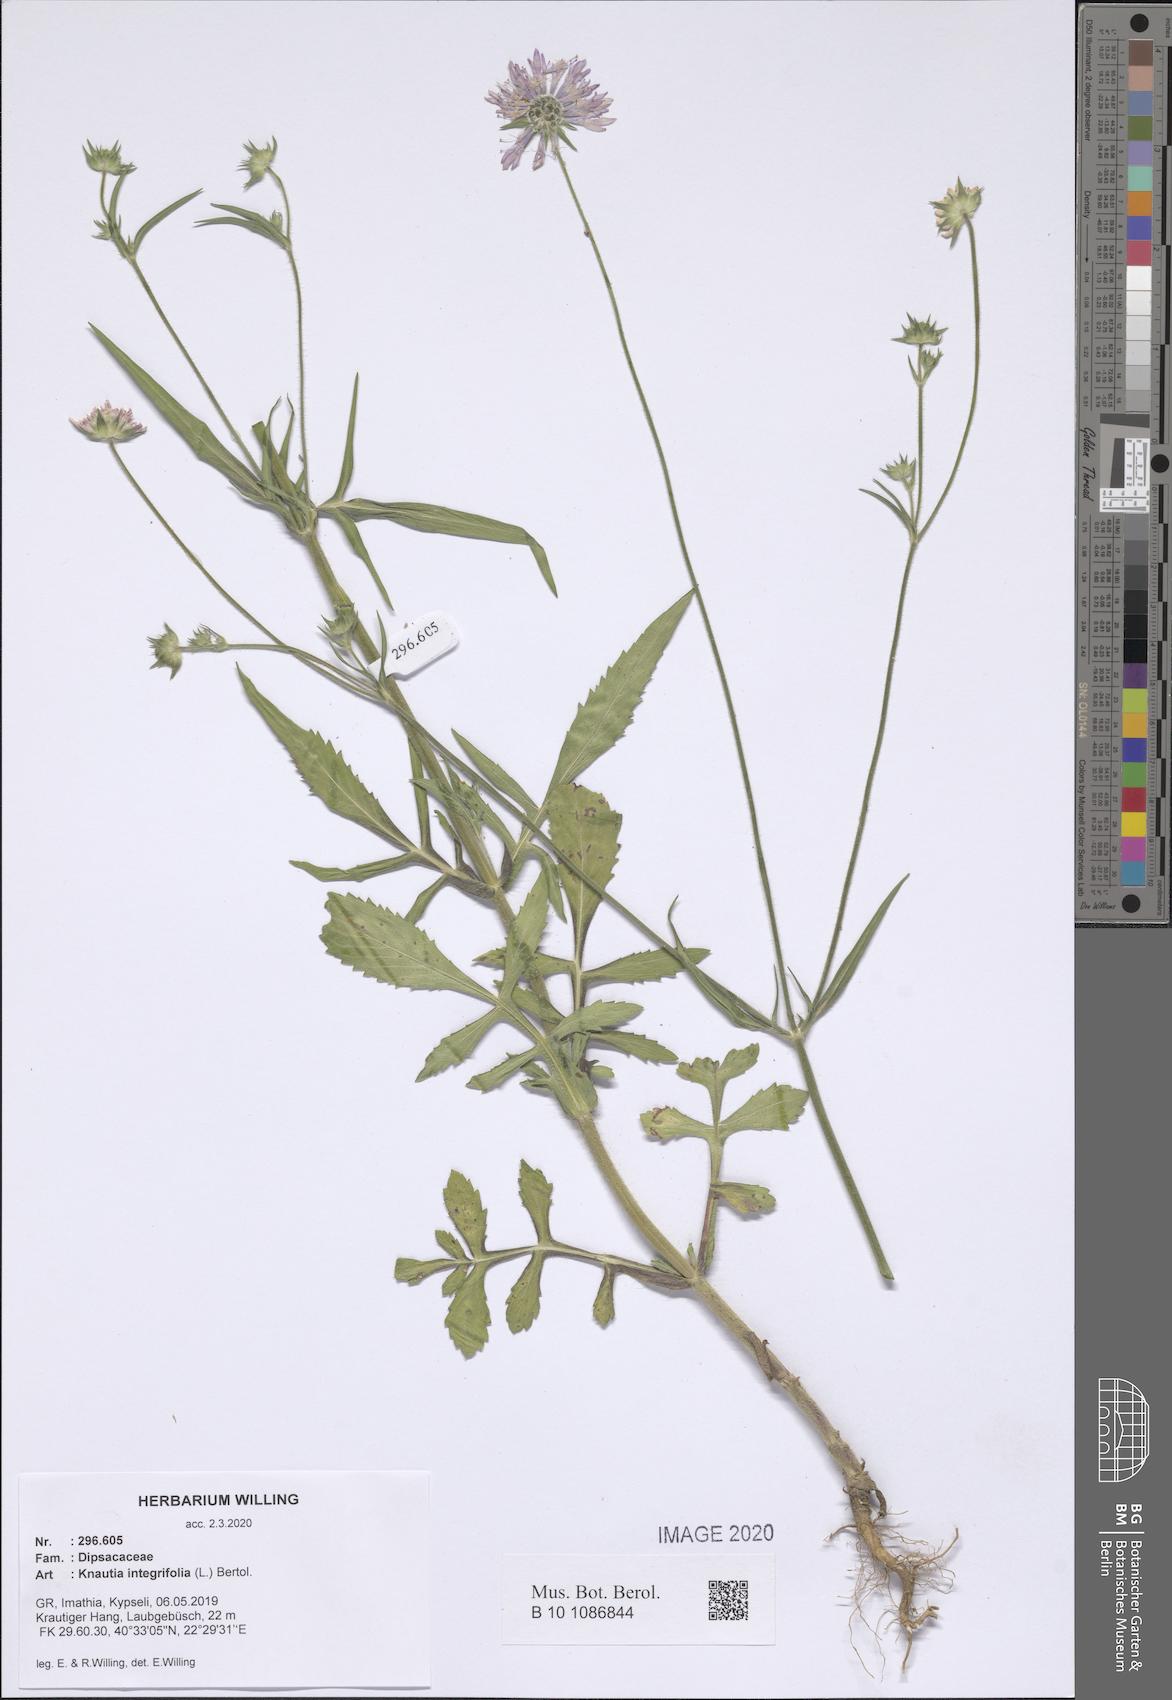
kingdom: Plantae
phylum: Tracheophyta
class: Magnoliopsida
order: Dipsacales
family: Caprifoliaceae
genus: Knautia
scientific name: Knautia integrifolia
